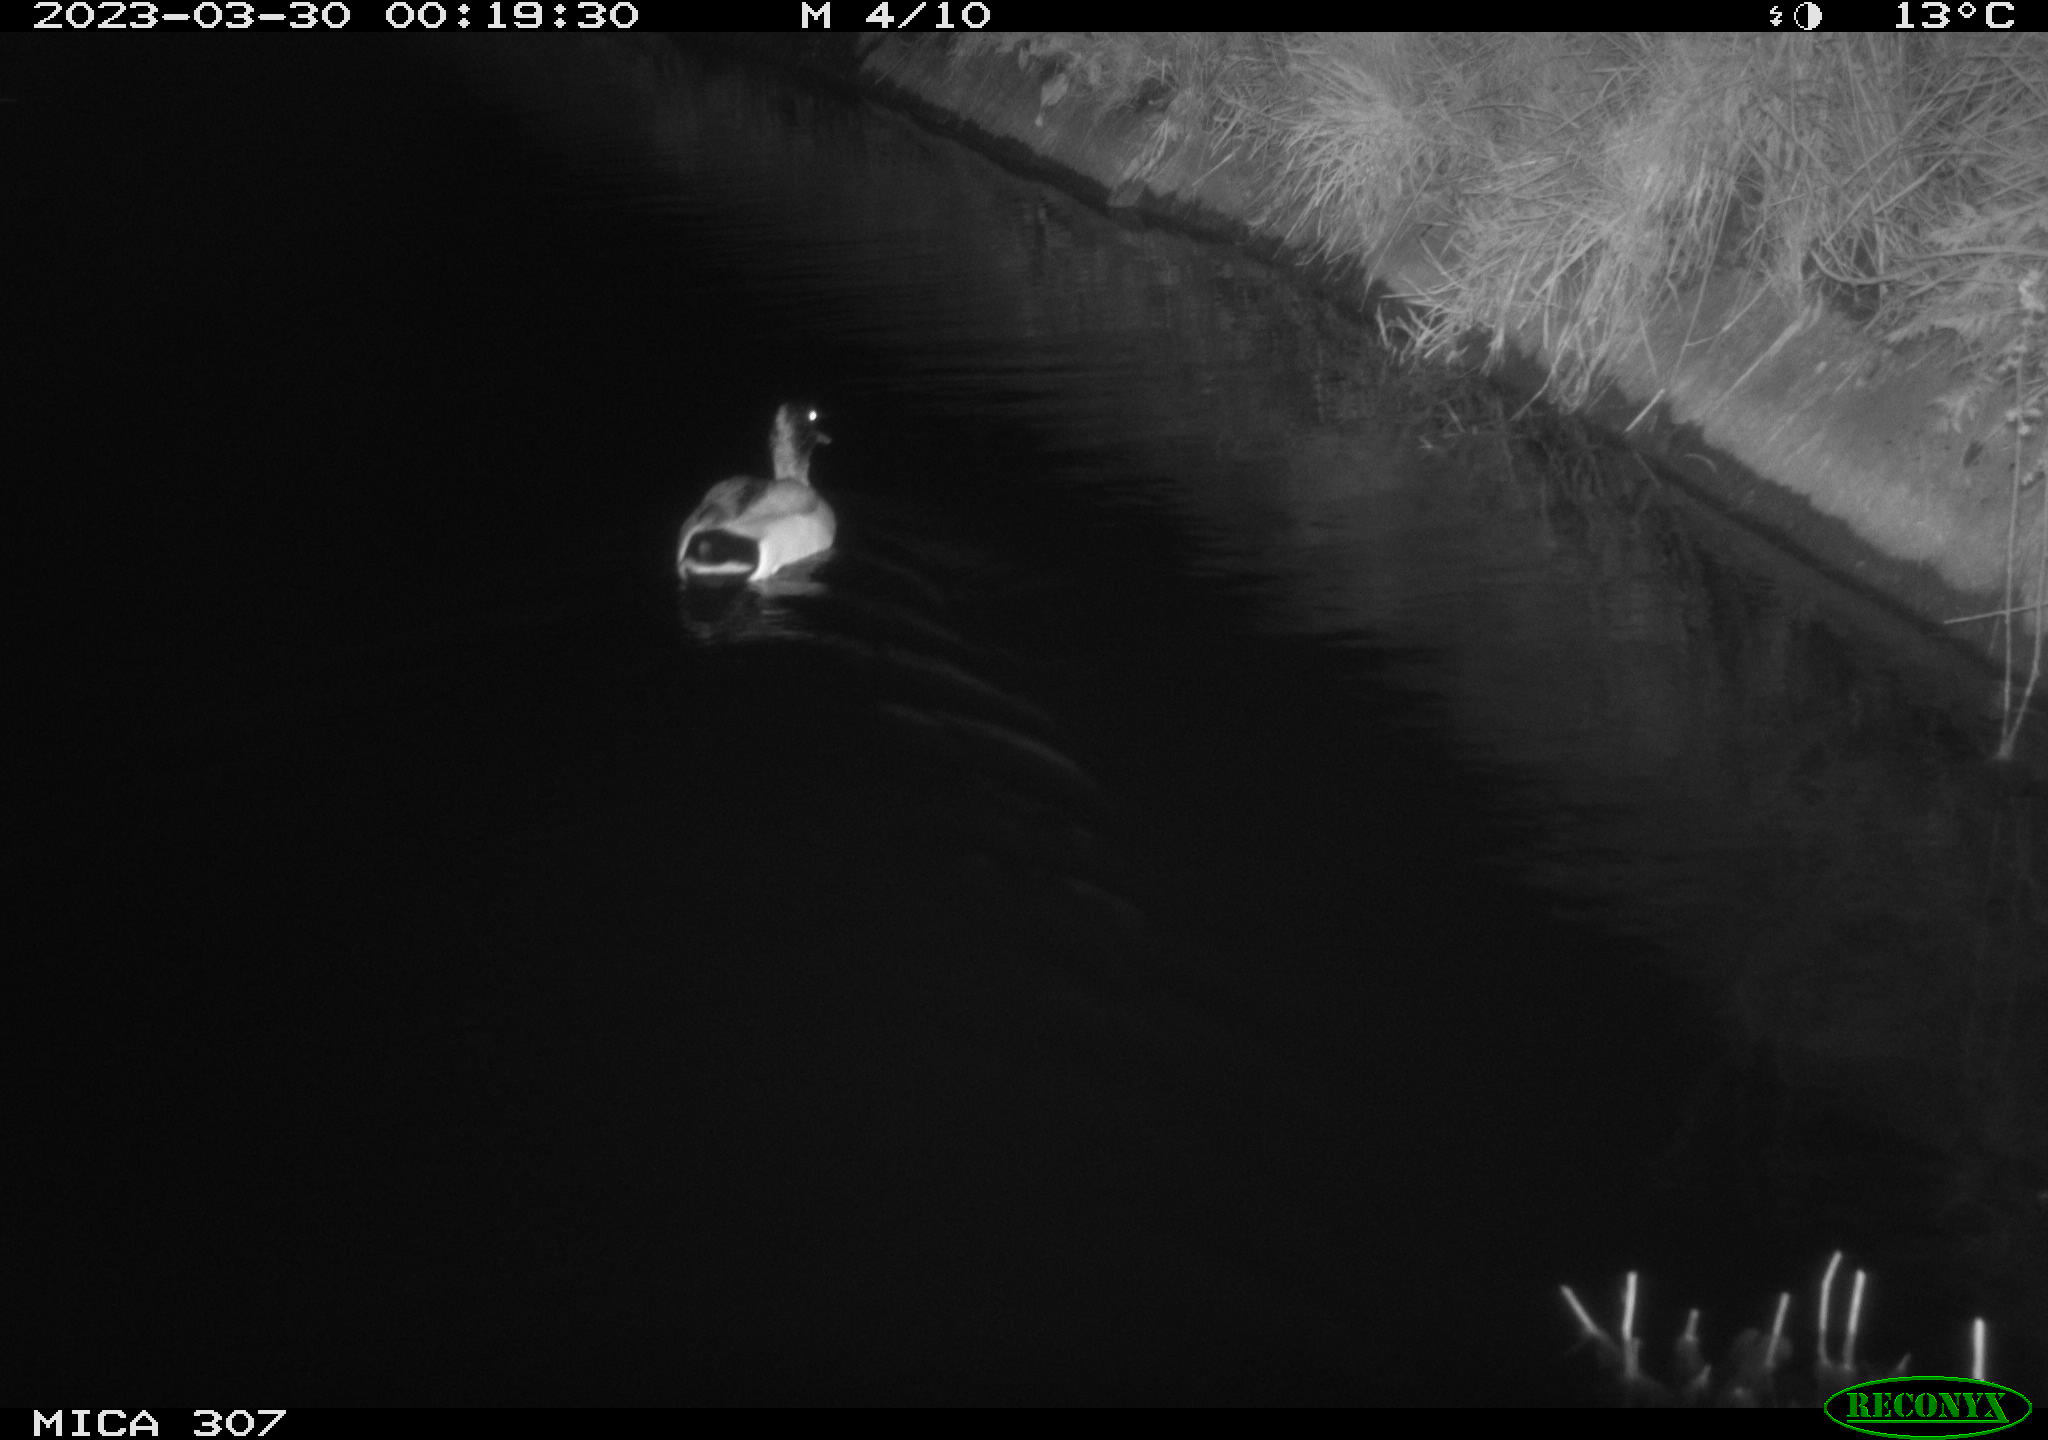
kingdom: Animalia
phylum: Chordata
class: Aves
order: Anseriformes
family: Anatidae
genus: Anas
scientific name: Anas
